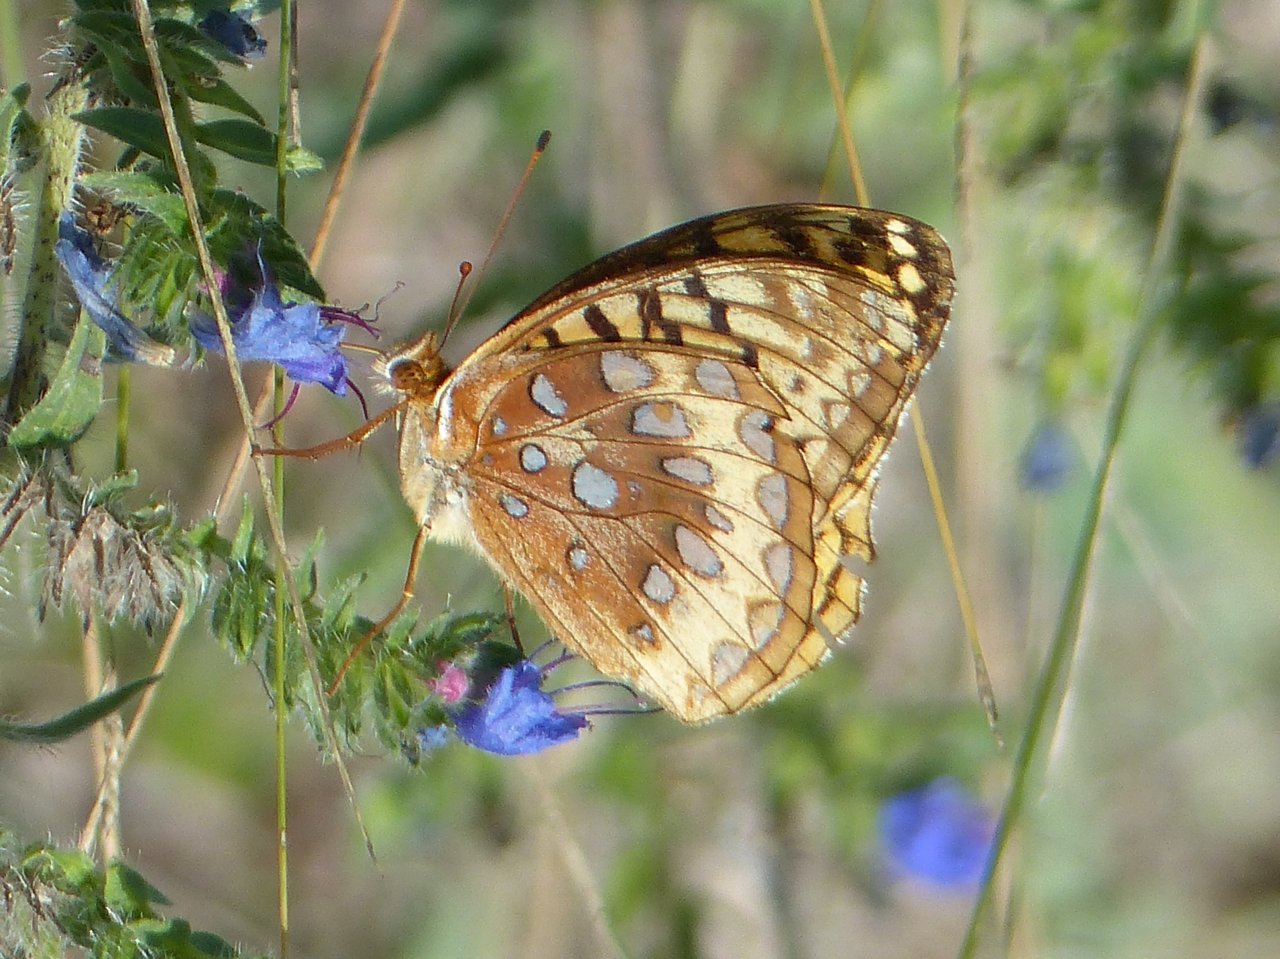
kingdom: Animalia
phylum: Arthropoda
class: Insecta
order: Lepidoptera
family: Nymphalidae
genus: Speyeria
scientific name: Speyeria cybele
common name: Great Spangled Fritillary
